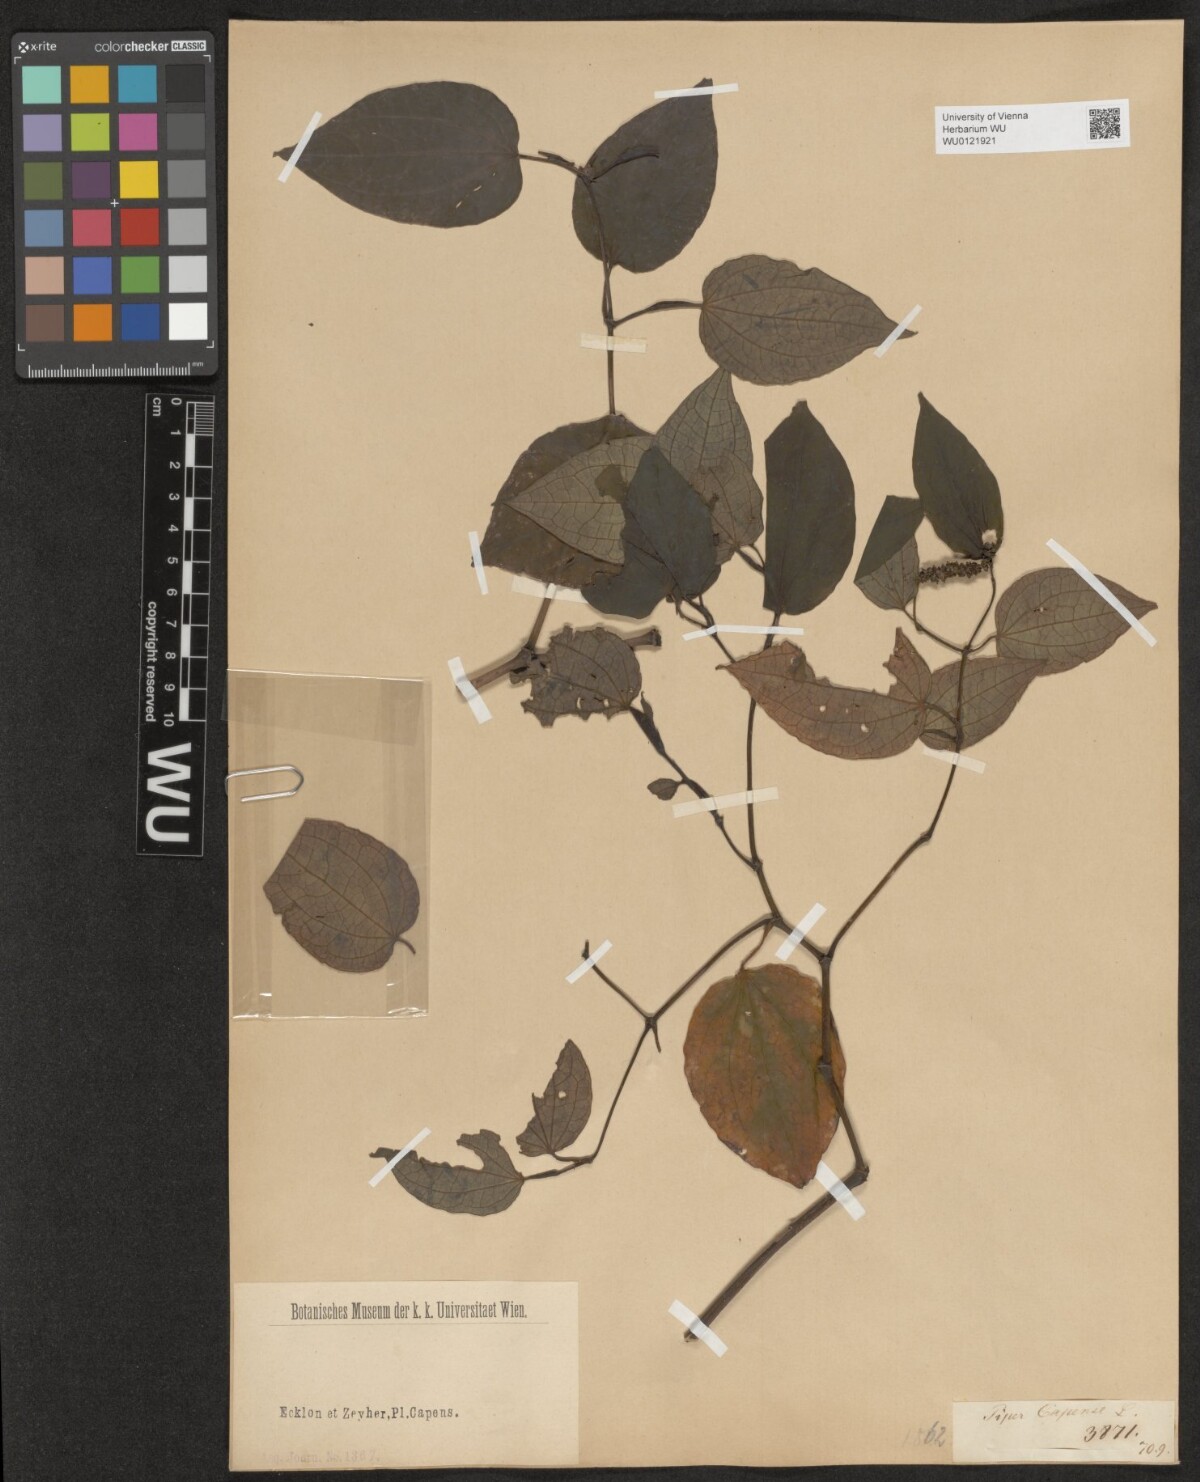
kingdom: Plantae
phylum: Tracheophyta
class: Magnoliopsida
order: Piperales
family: Piperaceae
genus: Piper
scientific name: Piper capense
